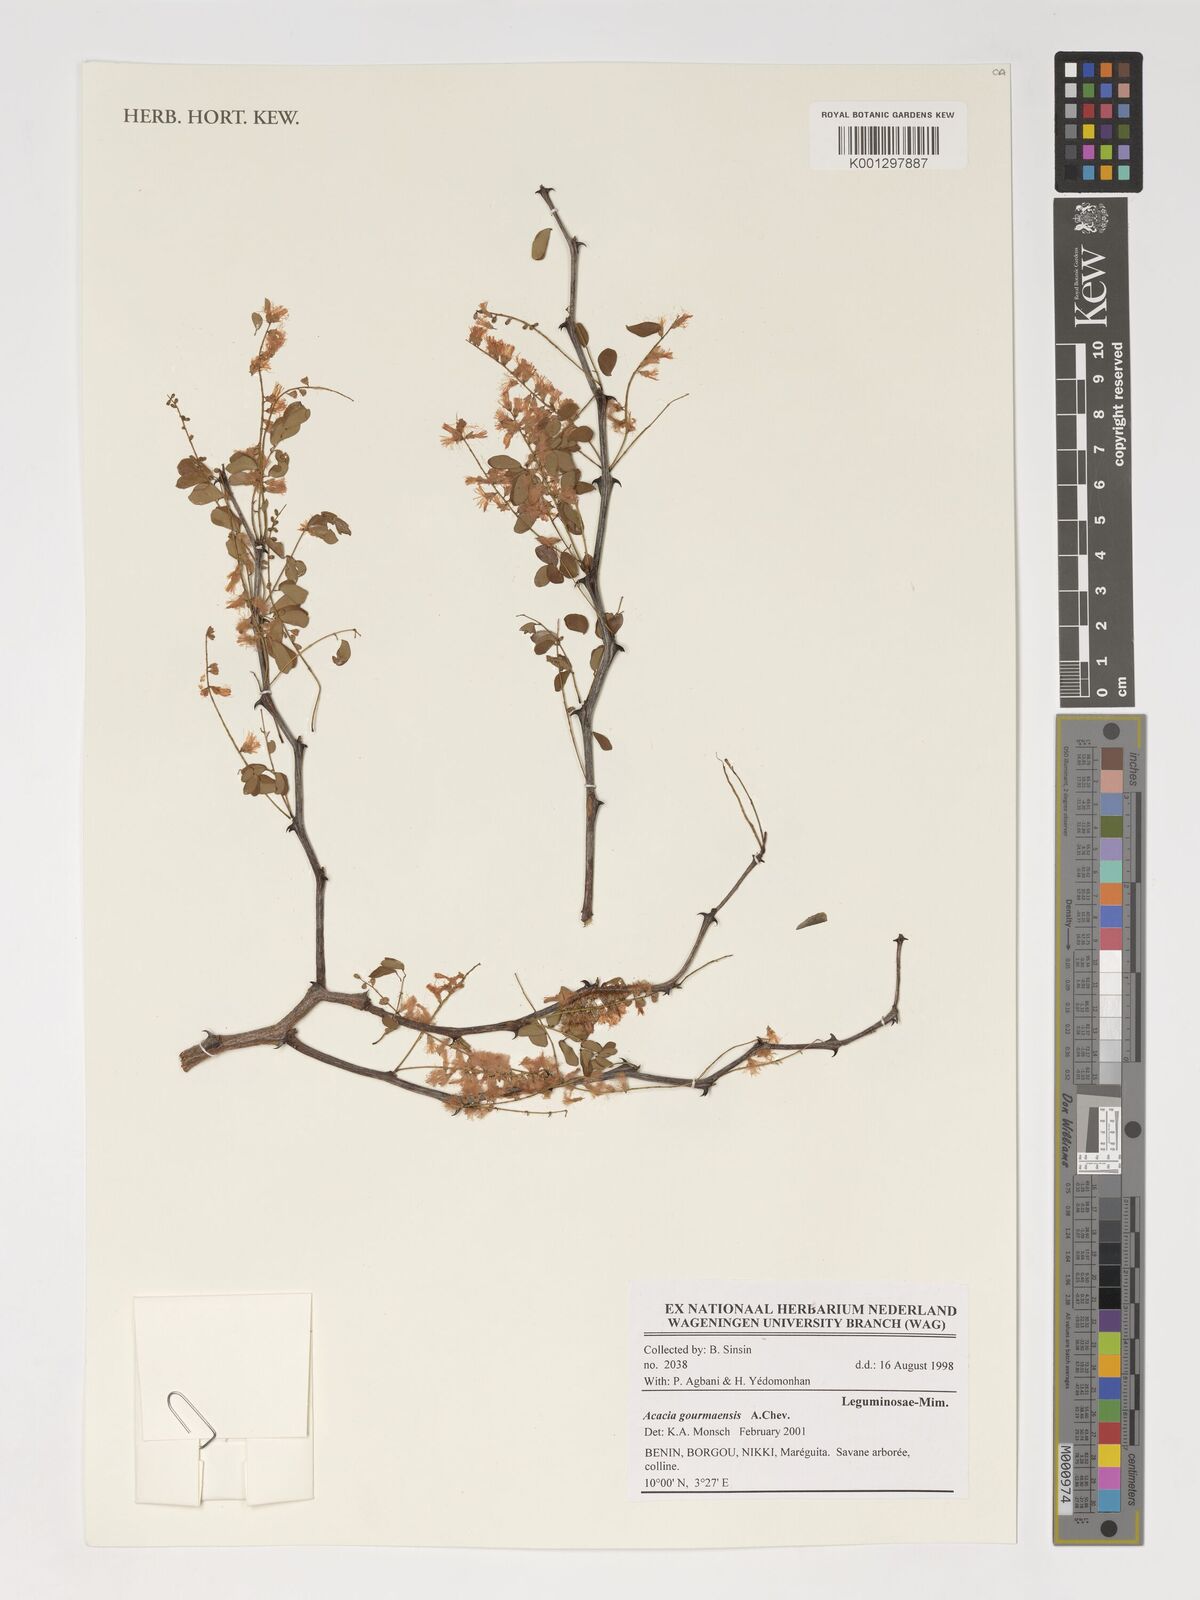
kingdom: Plantae
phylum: Tracheophyta
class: Magnoliopsida
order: Fabales
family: Fabaceae
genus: Senegalia
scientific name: Senegalia gourmaensis
